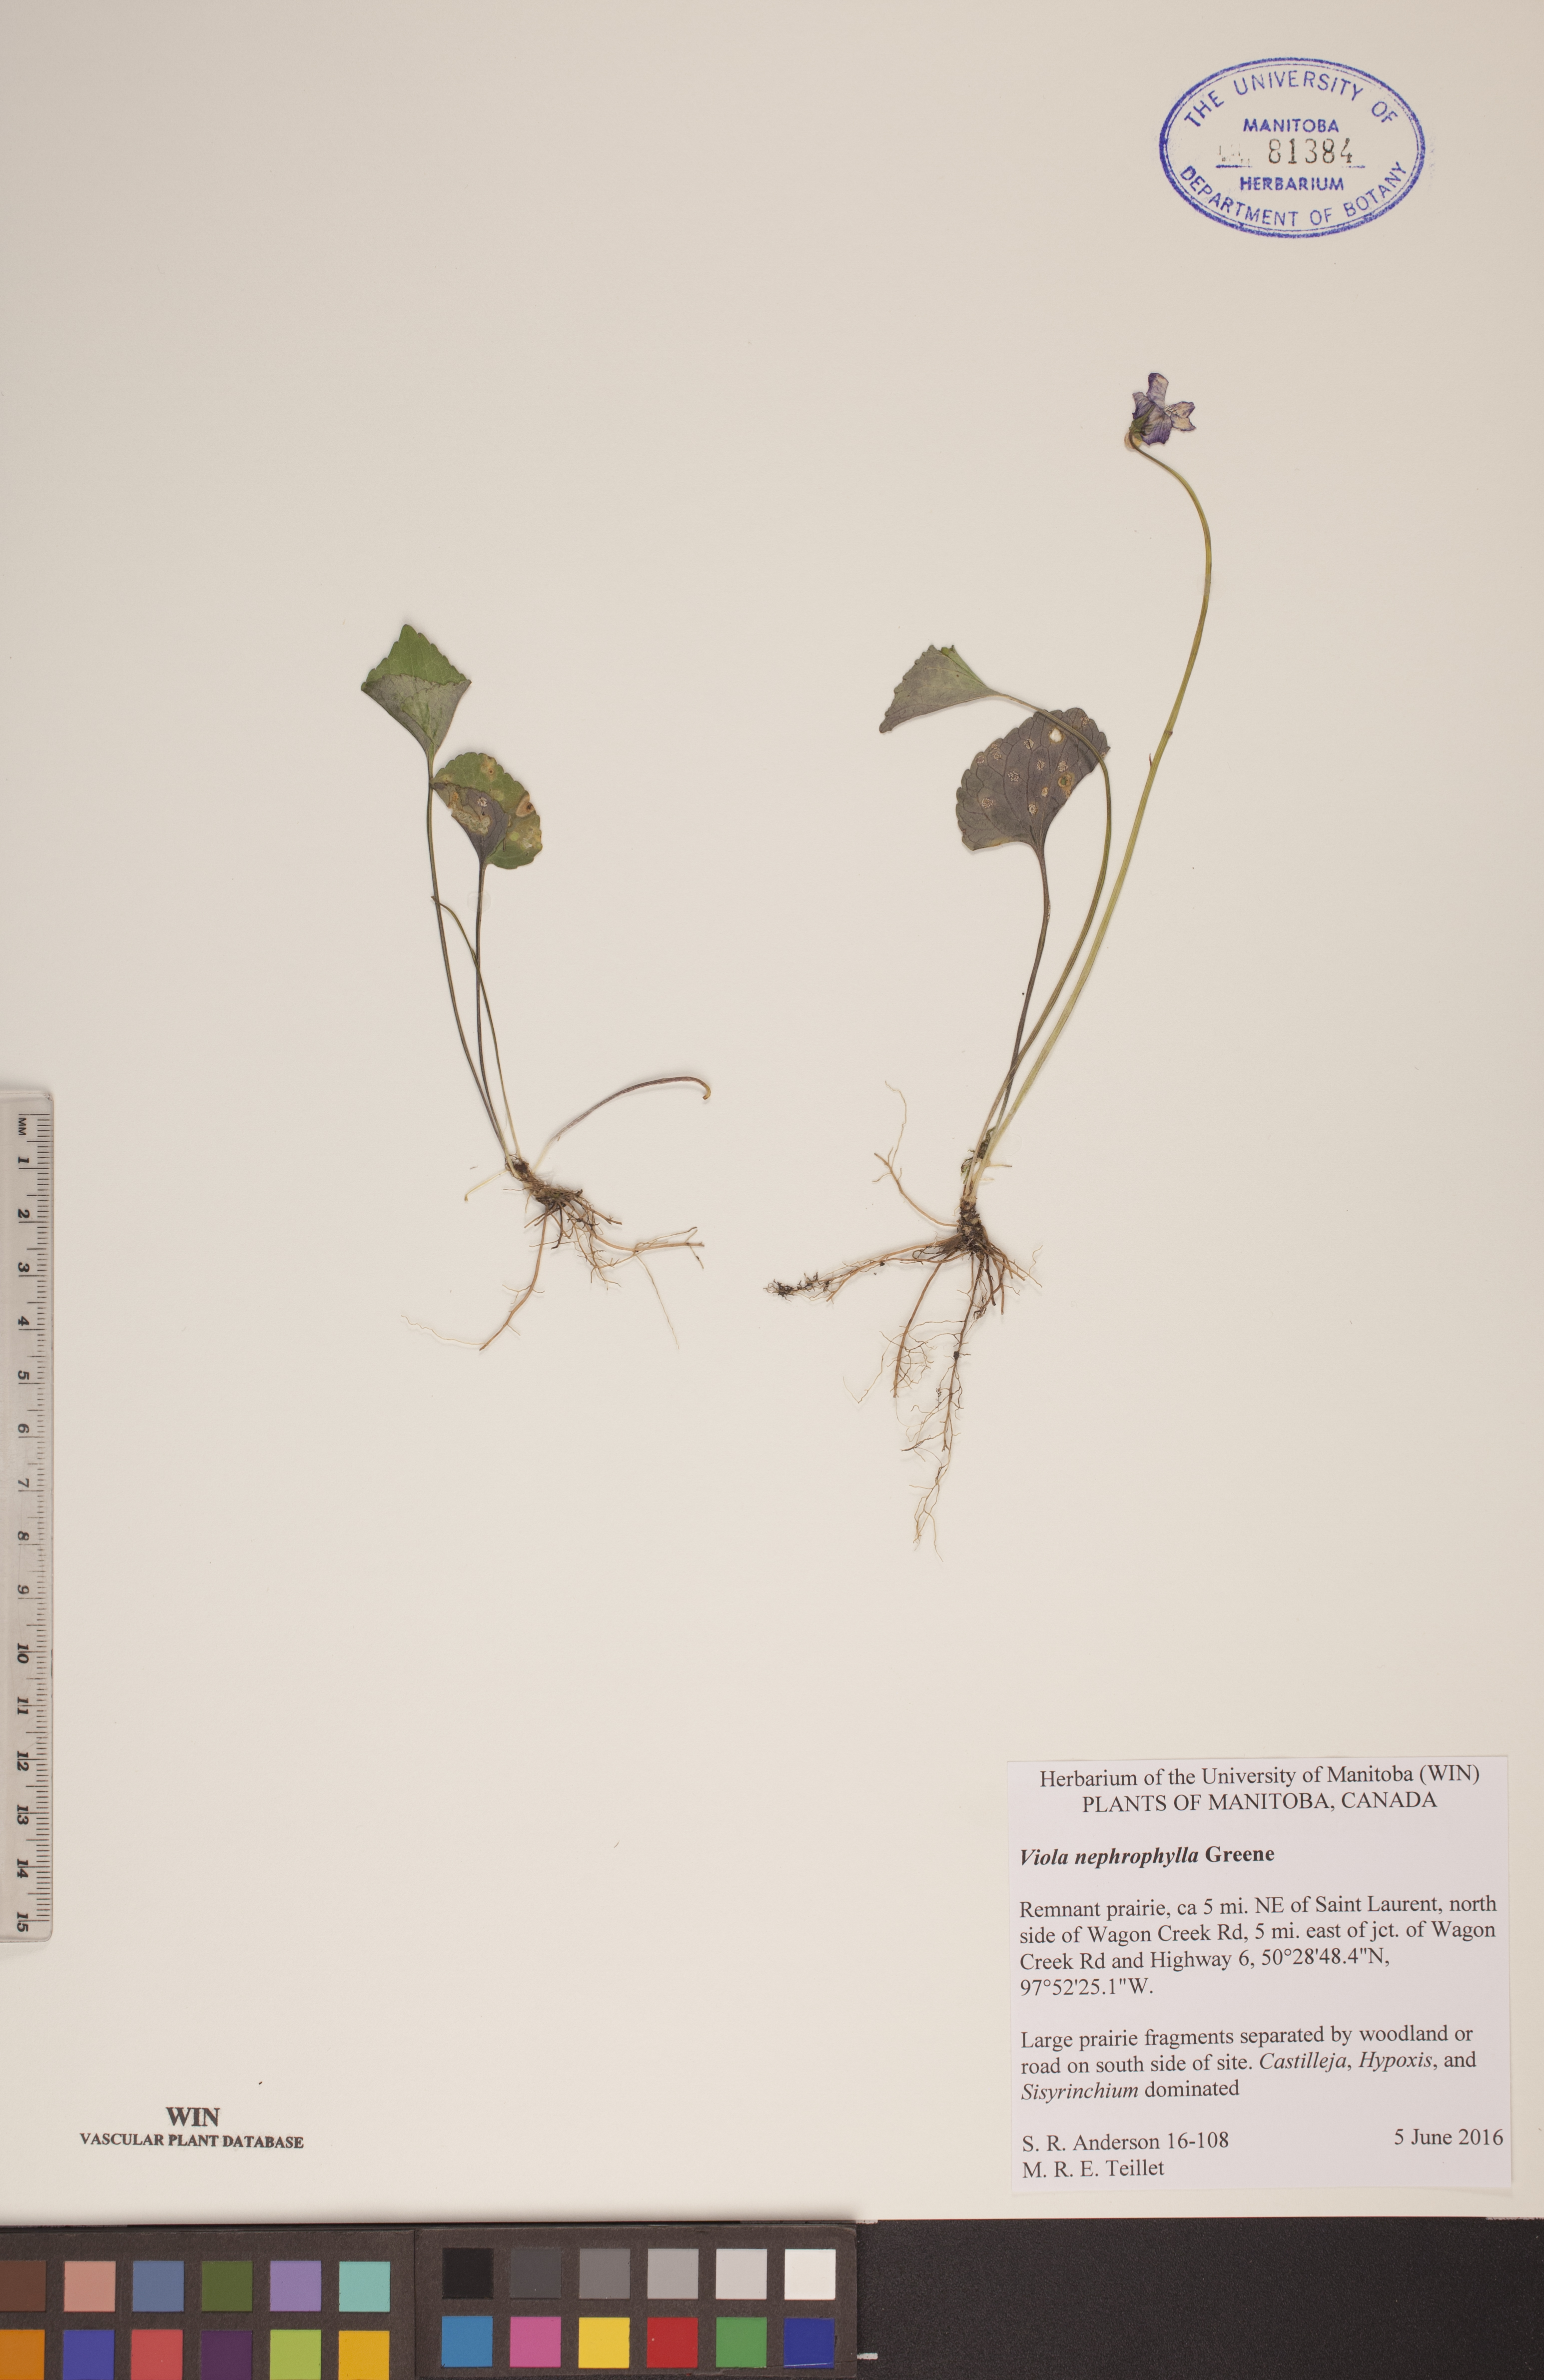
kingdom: Plantae
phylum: Tracheophyta
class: Magnoliopsida
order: Malpighiales
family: Violaceae
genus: Viola
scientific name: Viola nephrophylla
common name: Blue meadow violet
